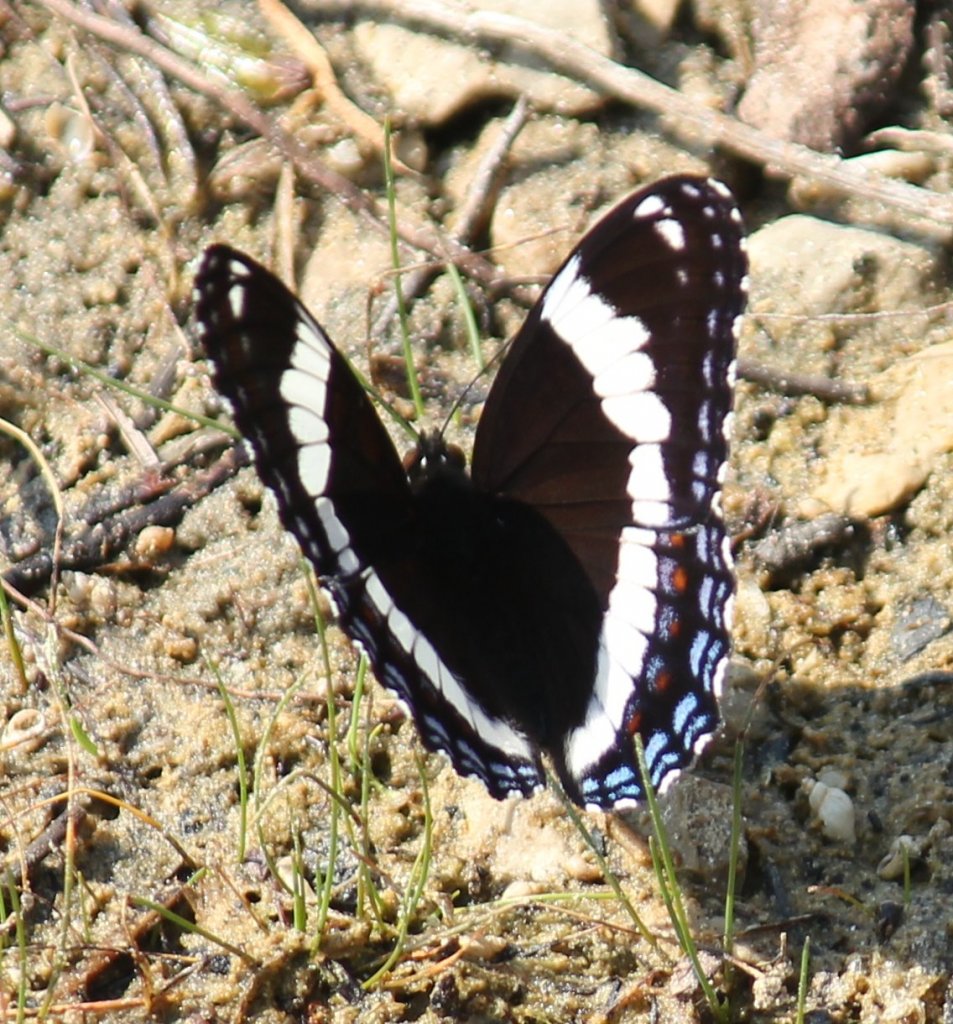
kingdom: Animalia
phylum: Arthropoda
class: Insecta
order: Lepidoptera
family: Nymphalidae
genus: Limenitis
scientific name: Limenitis arthemis
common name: Red-spotted Admiral
